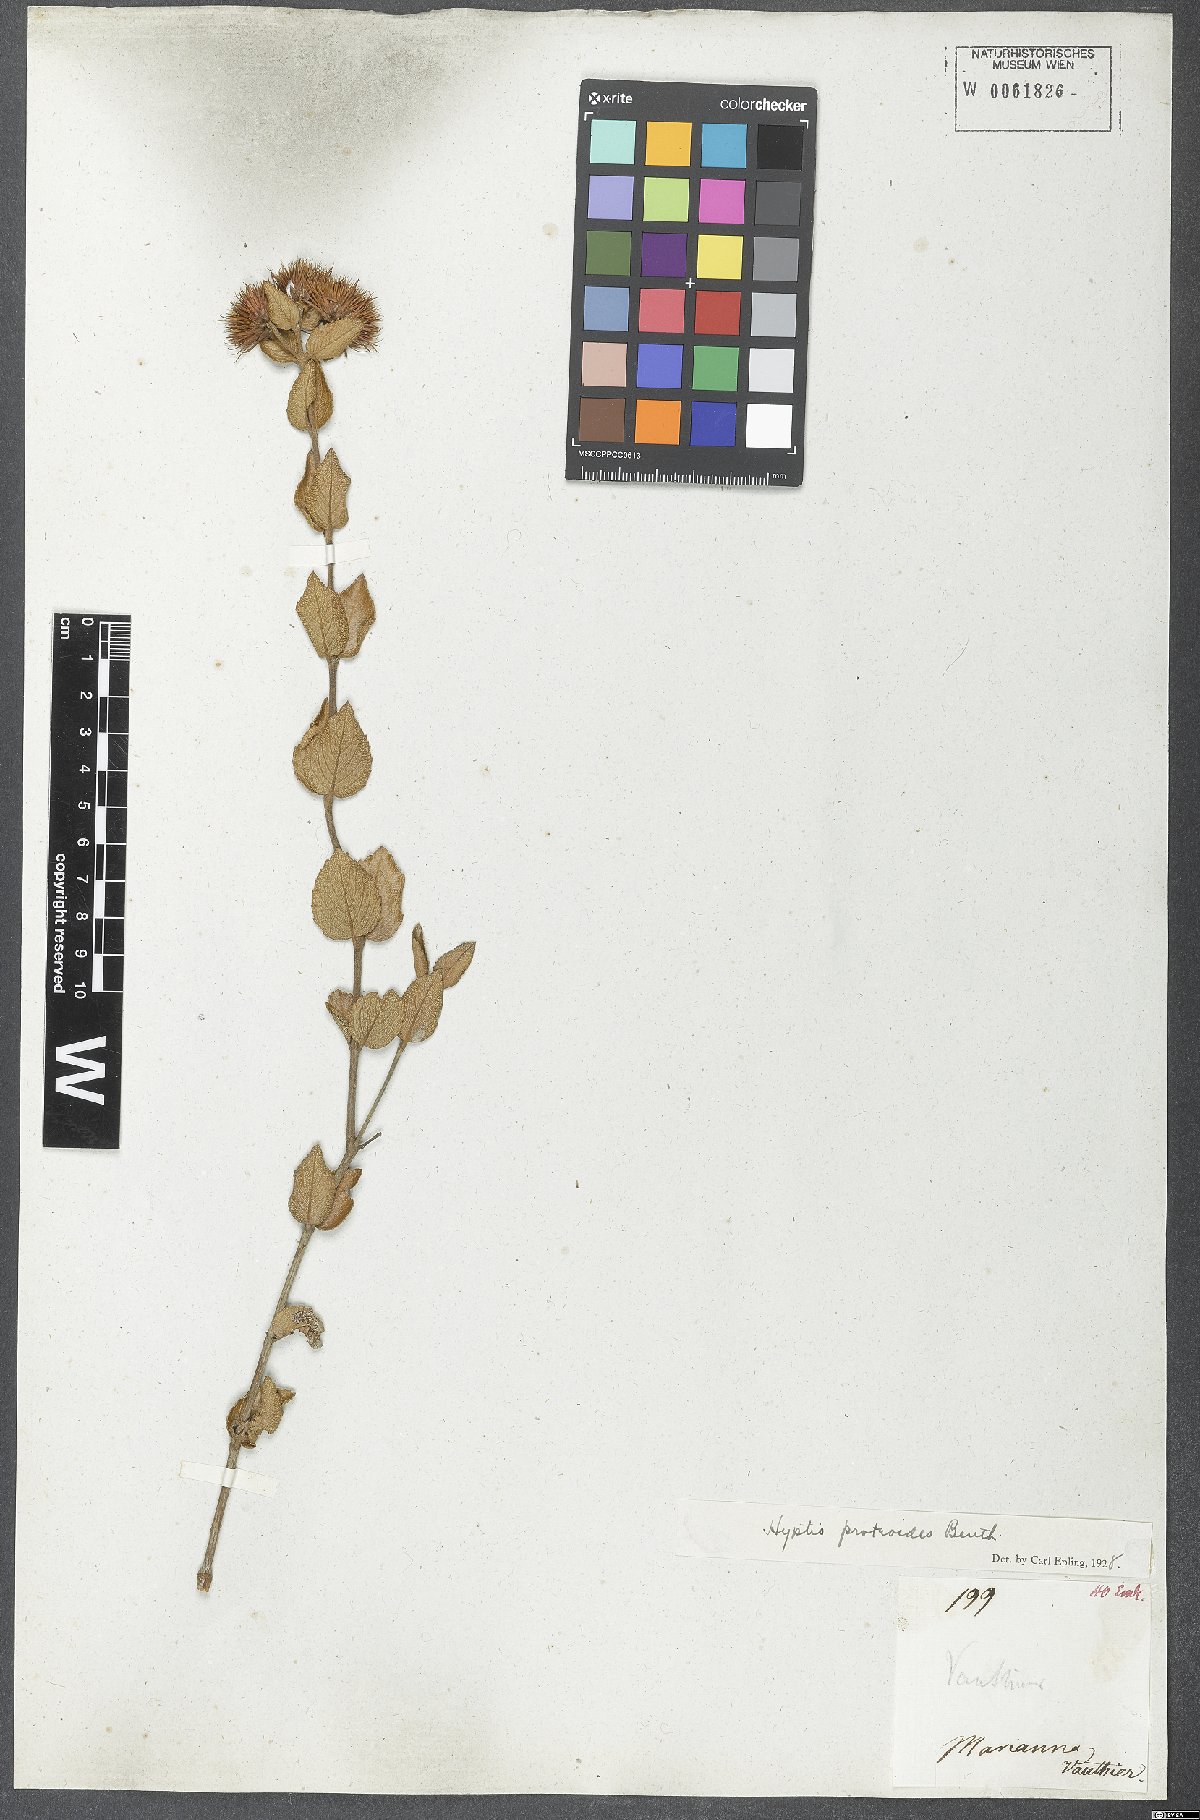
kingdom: Plantae
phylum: Tracheophyta
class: Magnoliopsida
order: Lamiales
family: Lamiaceae
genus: Hyptis
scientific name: Hyptis proteoides
